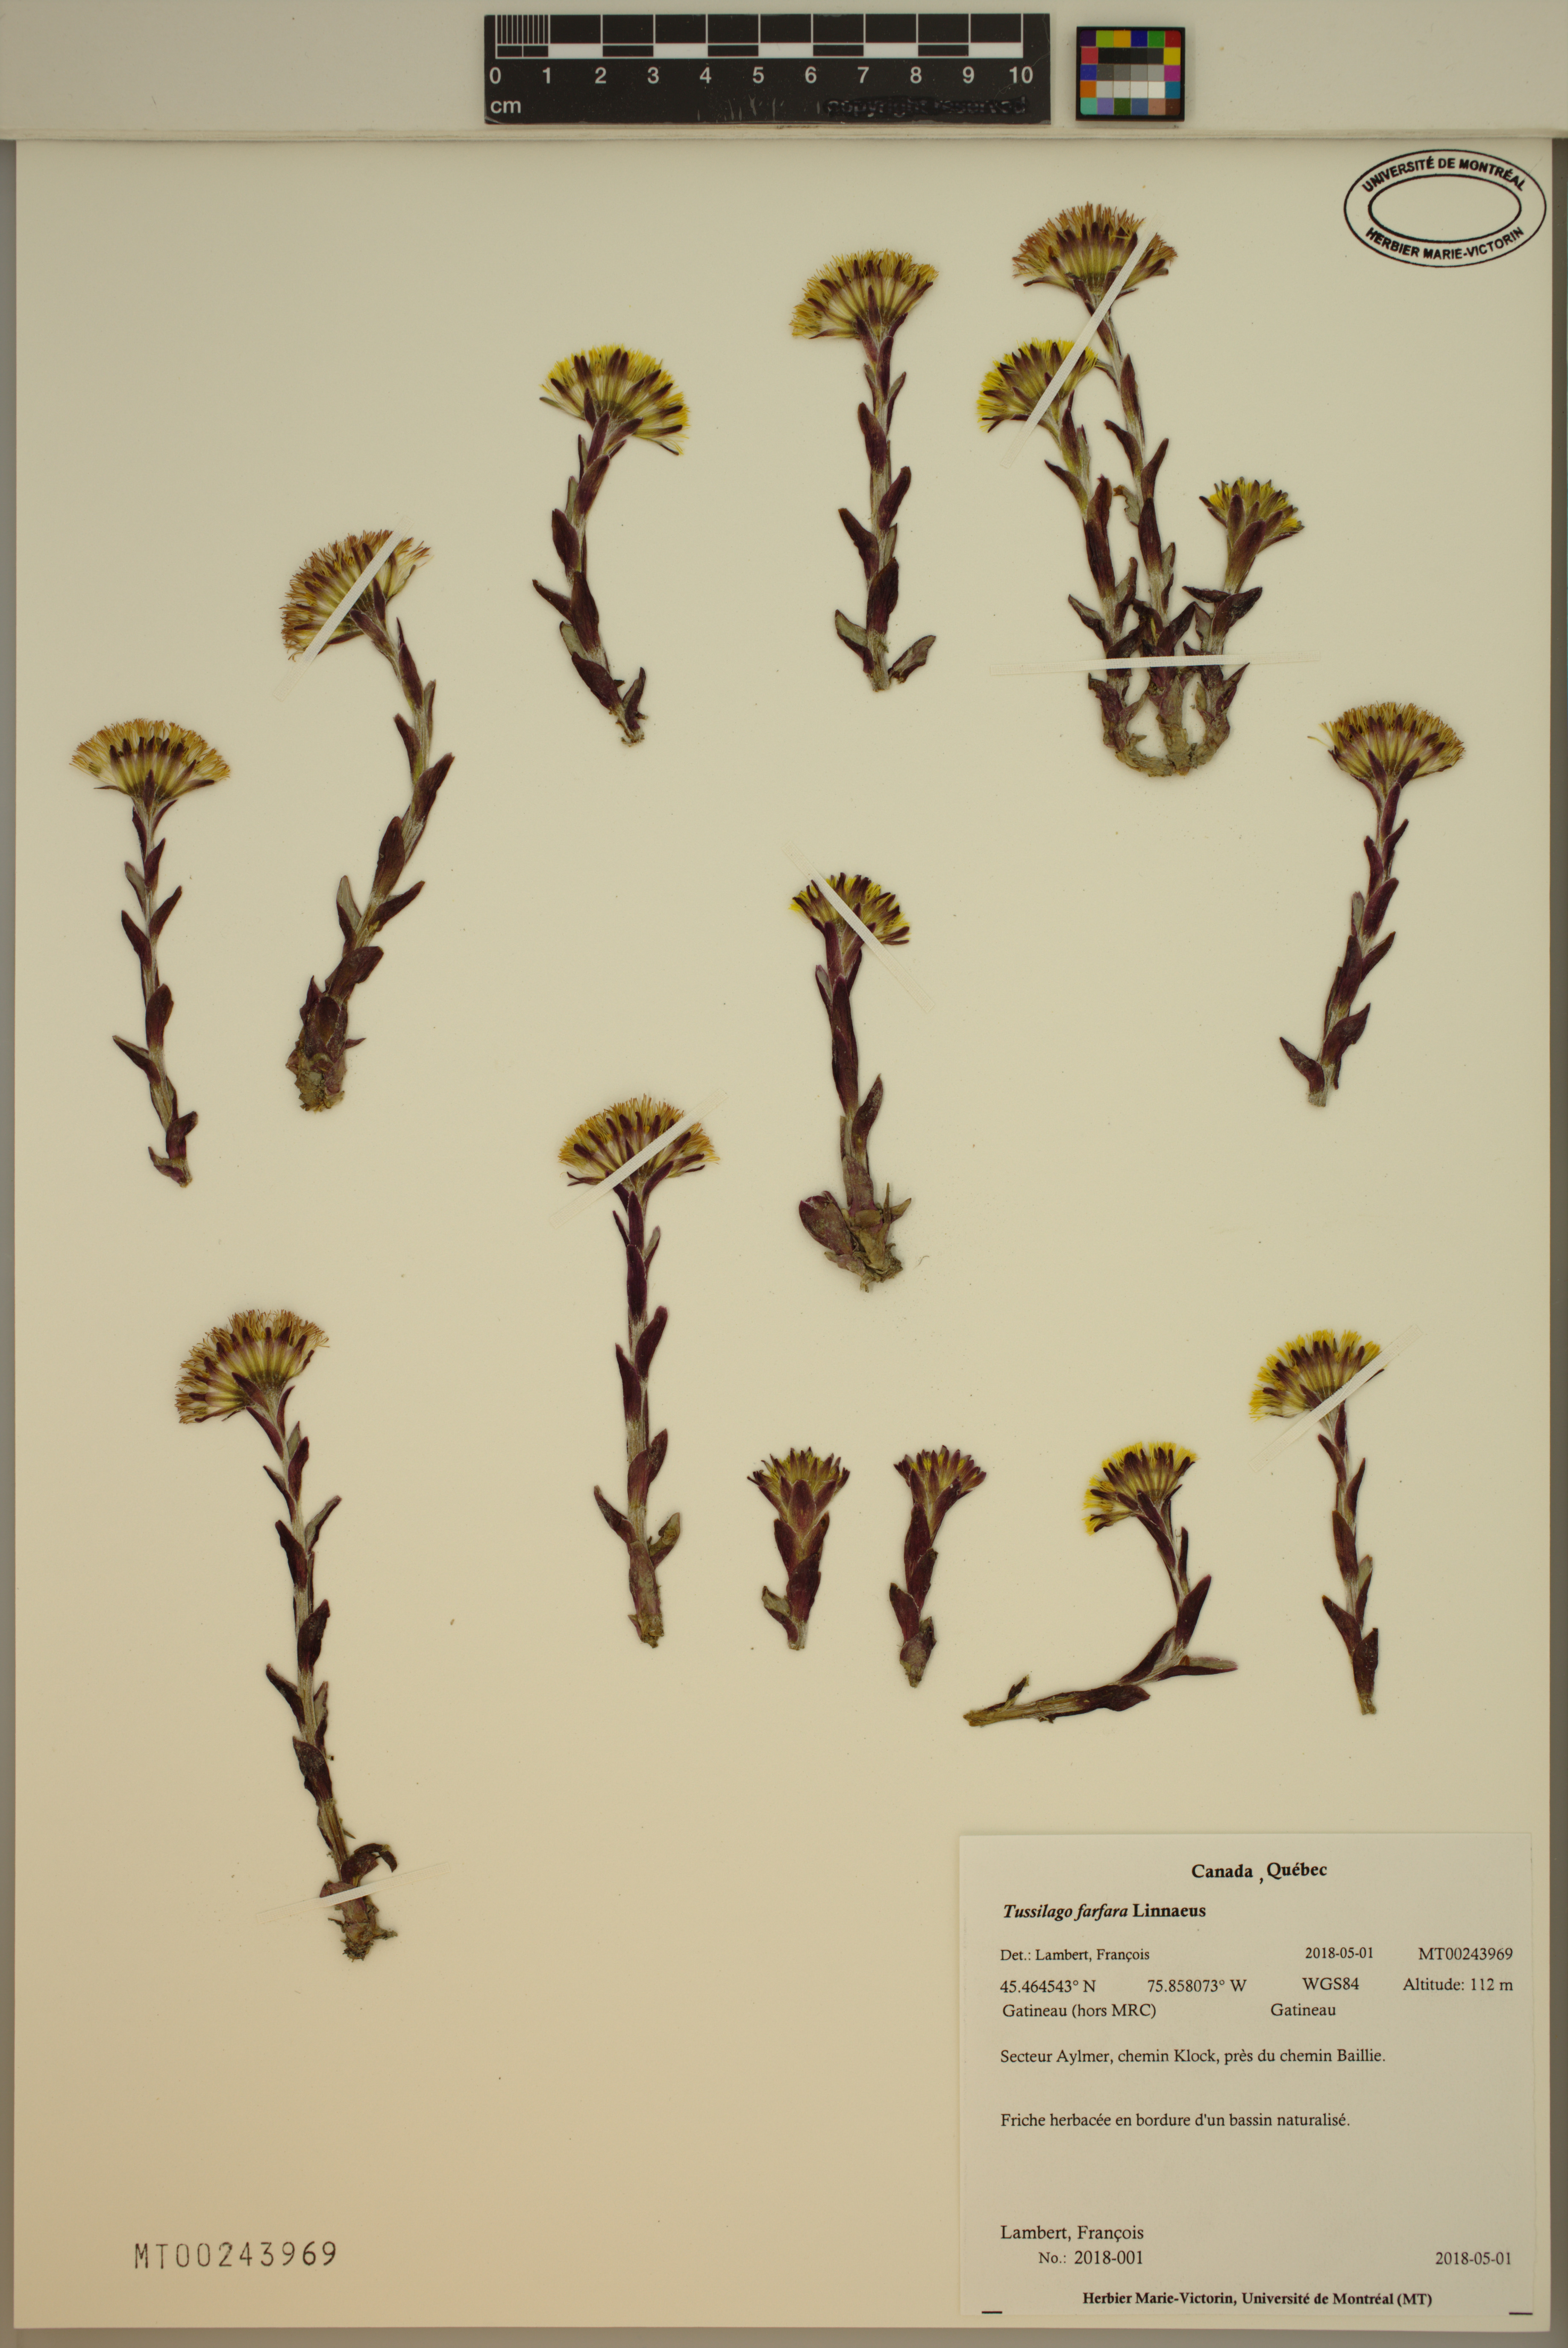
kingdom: Plantae
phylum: Tracheophyta
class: Magnoliopsida
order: Asterales
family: Asteraceae
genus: Tussilago
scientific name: Tussilago farfara
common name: Coltsfoot
